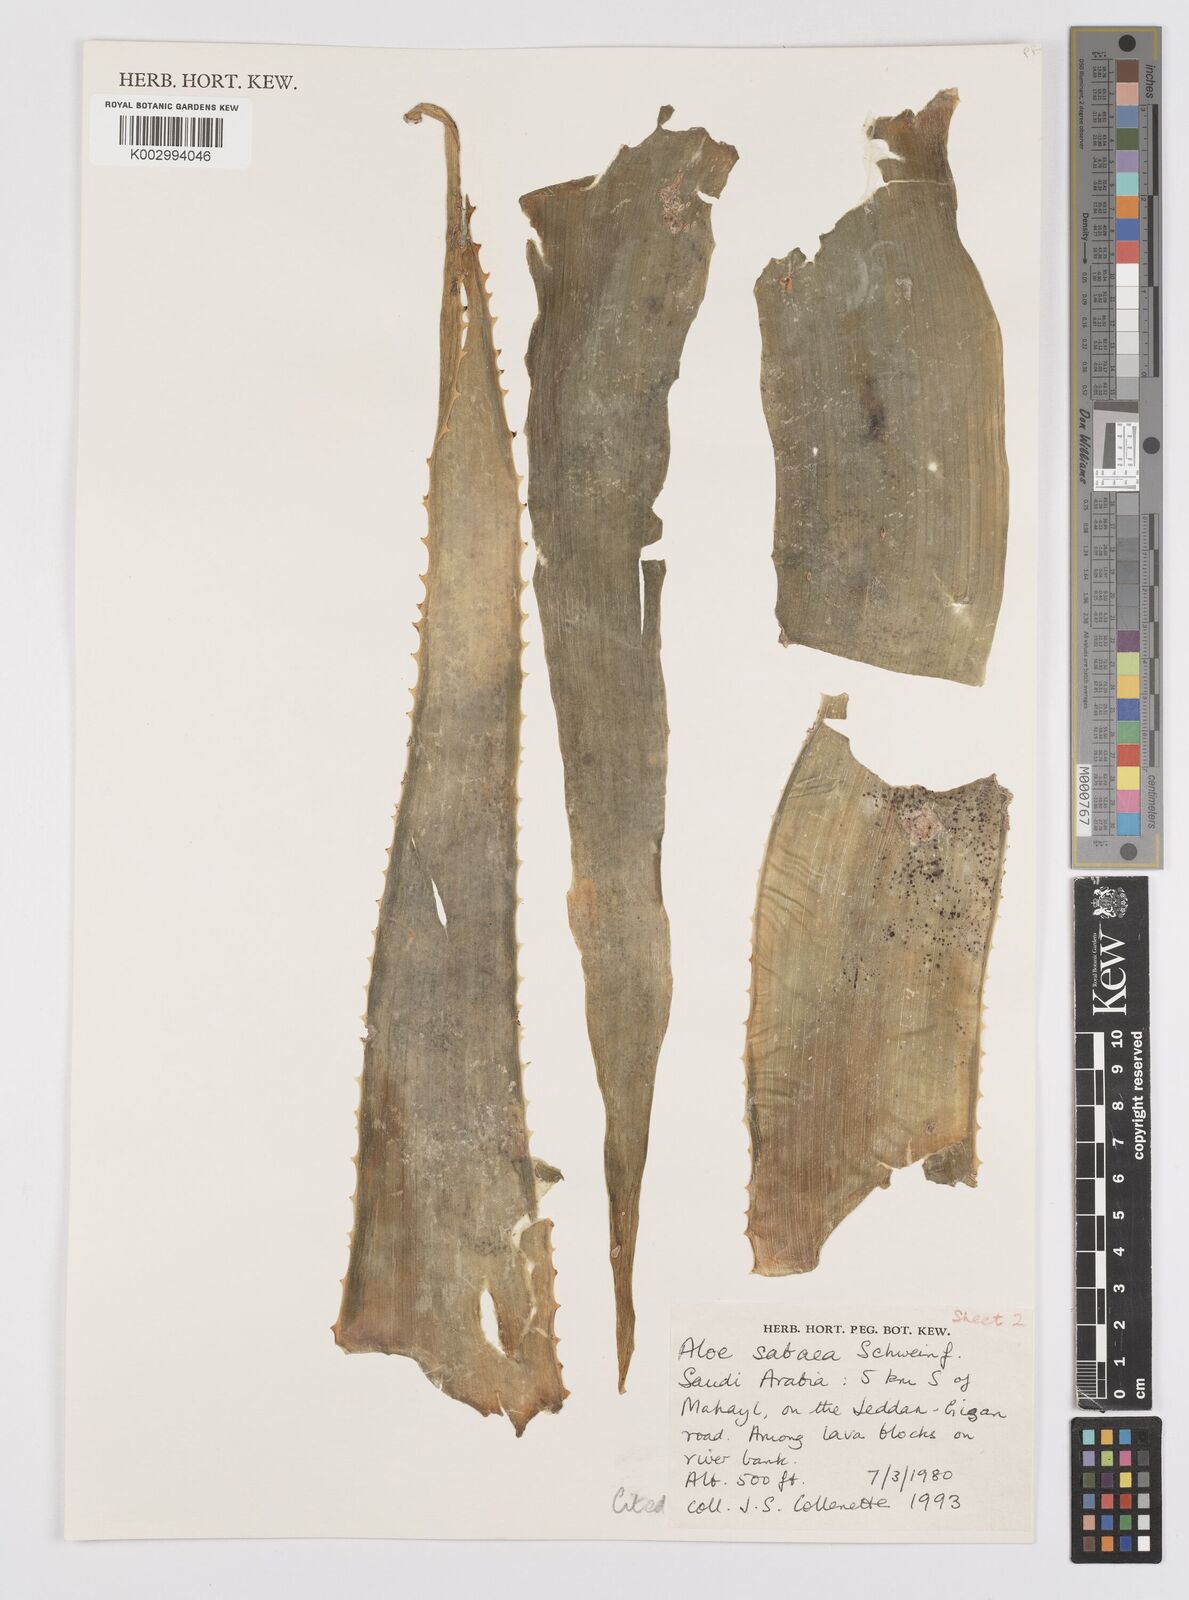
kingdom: Plantae
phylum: Tracheophyta
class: Liliopsida
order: Asparagales
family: Asphodelaceae
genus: Aloidendron
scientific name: Aloidendron sabaeum
